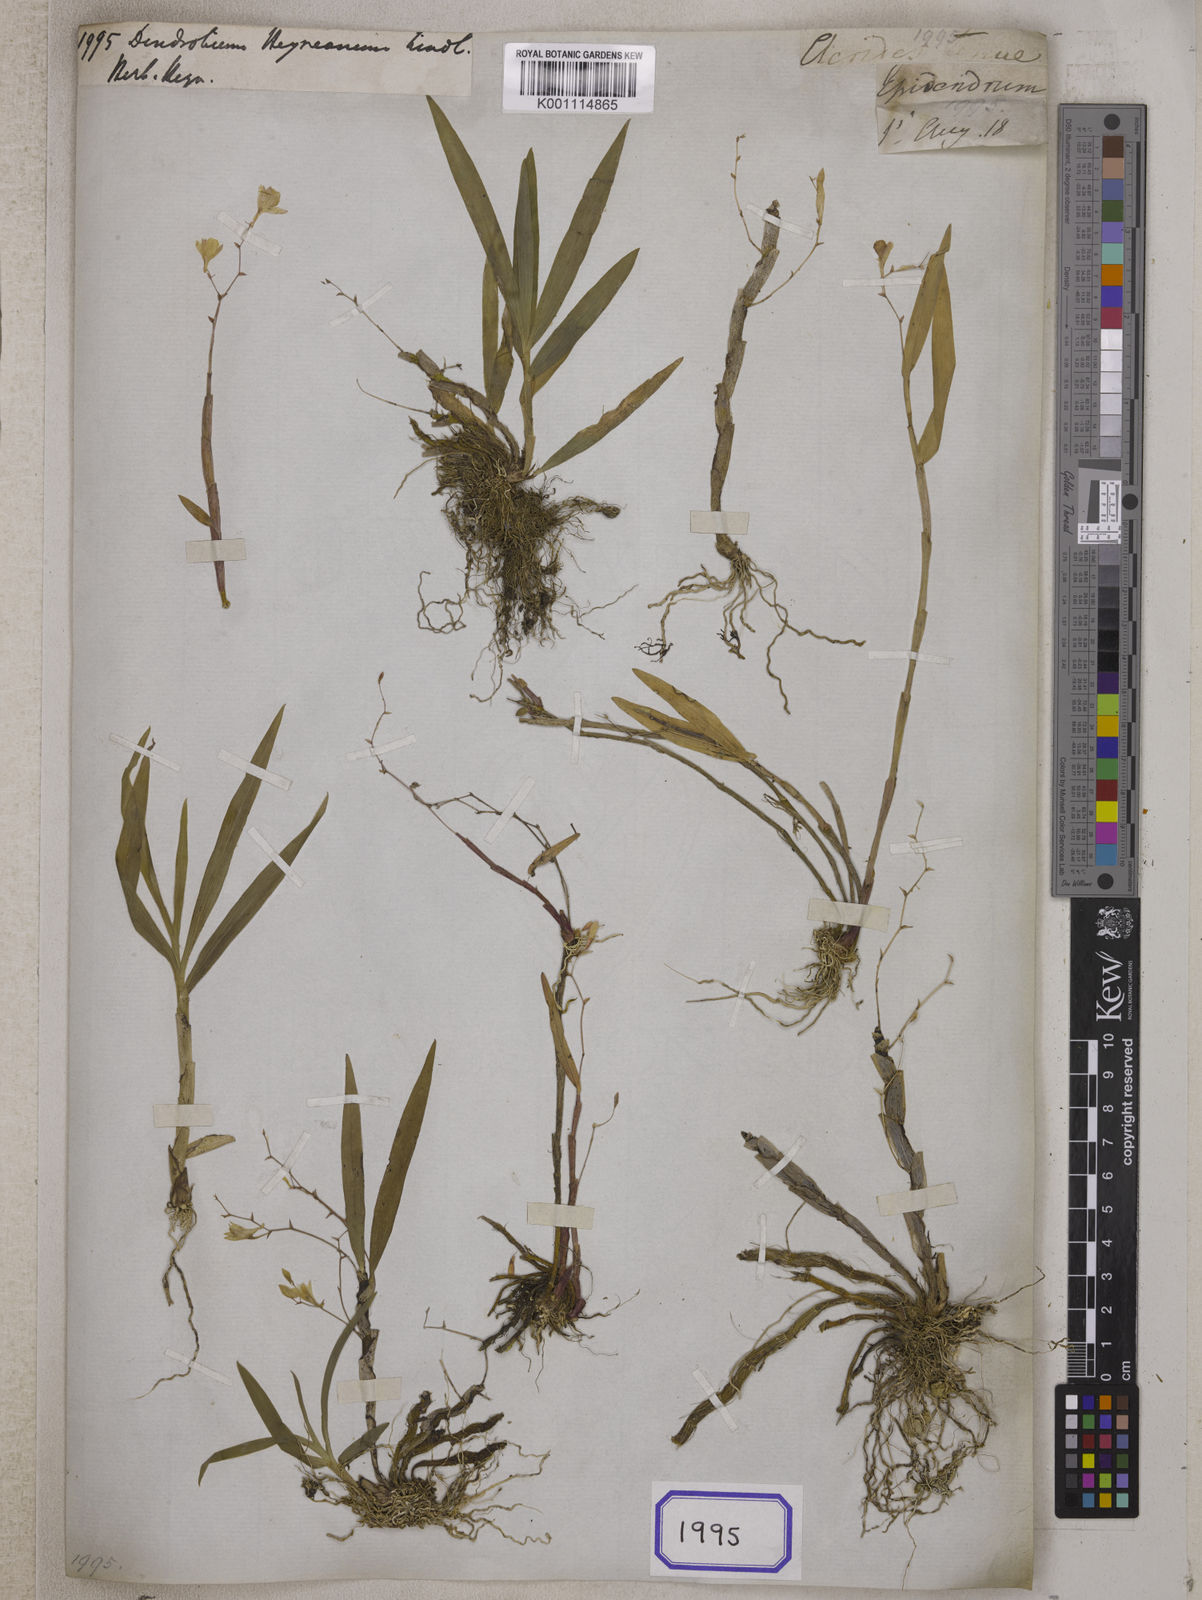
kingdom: Plantae
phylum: Tracheophyta
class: Liliopsida
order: Asparagales
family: Orchidaceae
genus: Dendrobium
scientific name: Dendrobium heyneanum
